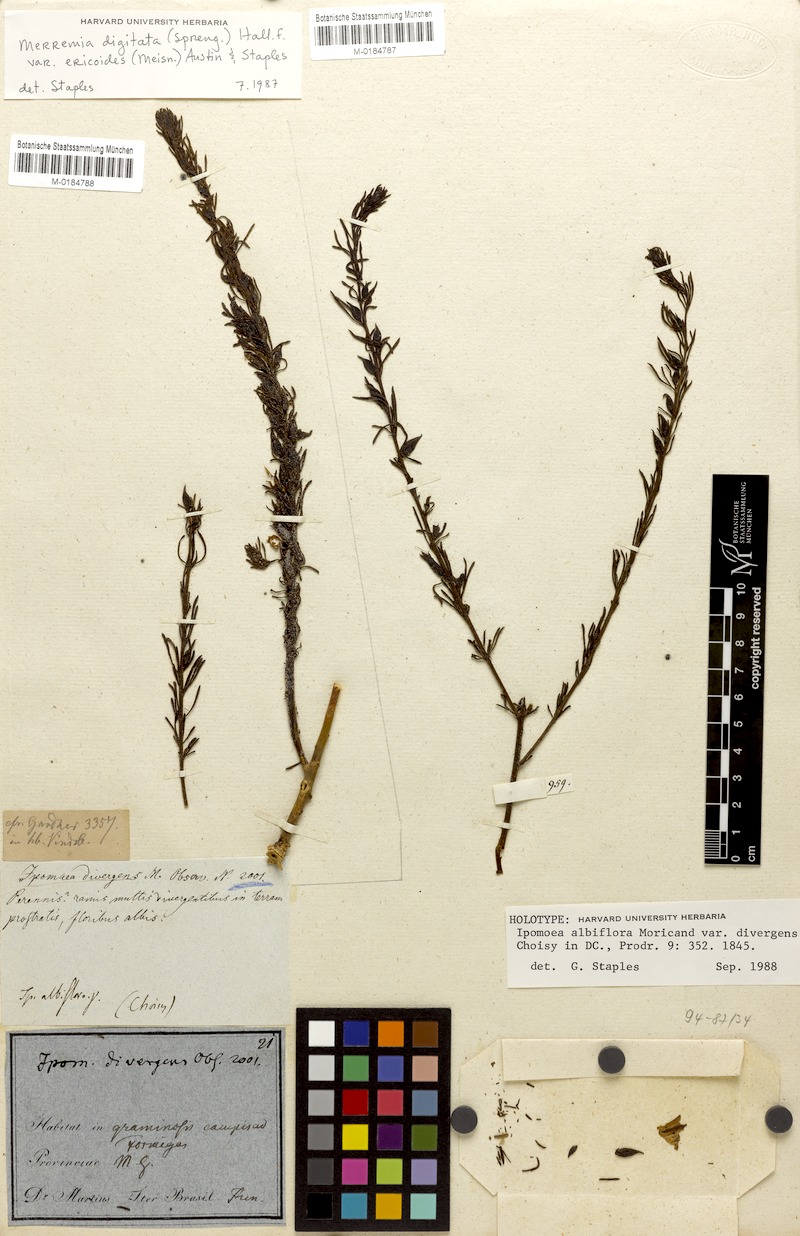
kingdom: Plantae
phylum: Tracheophyta
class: Magnoliopsida
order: Solanales
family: Convolvulaceae
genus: Distimake
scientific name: Distimake ericoides
